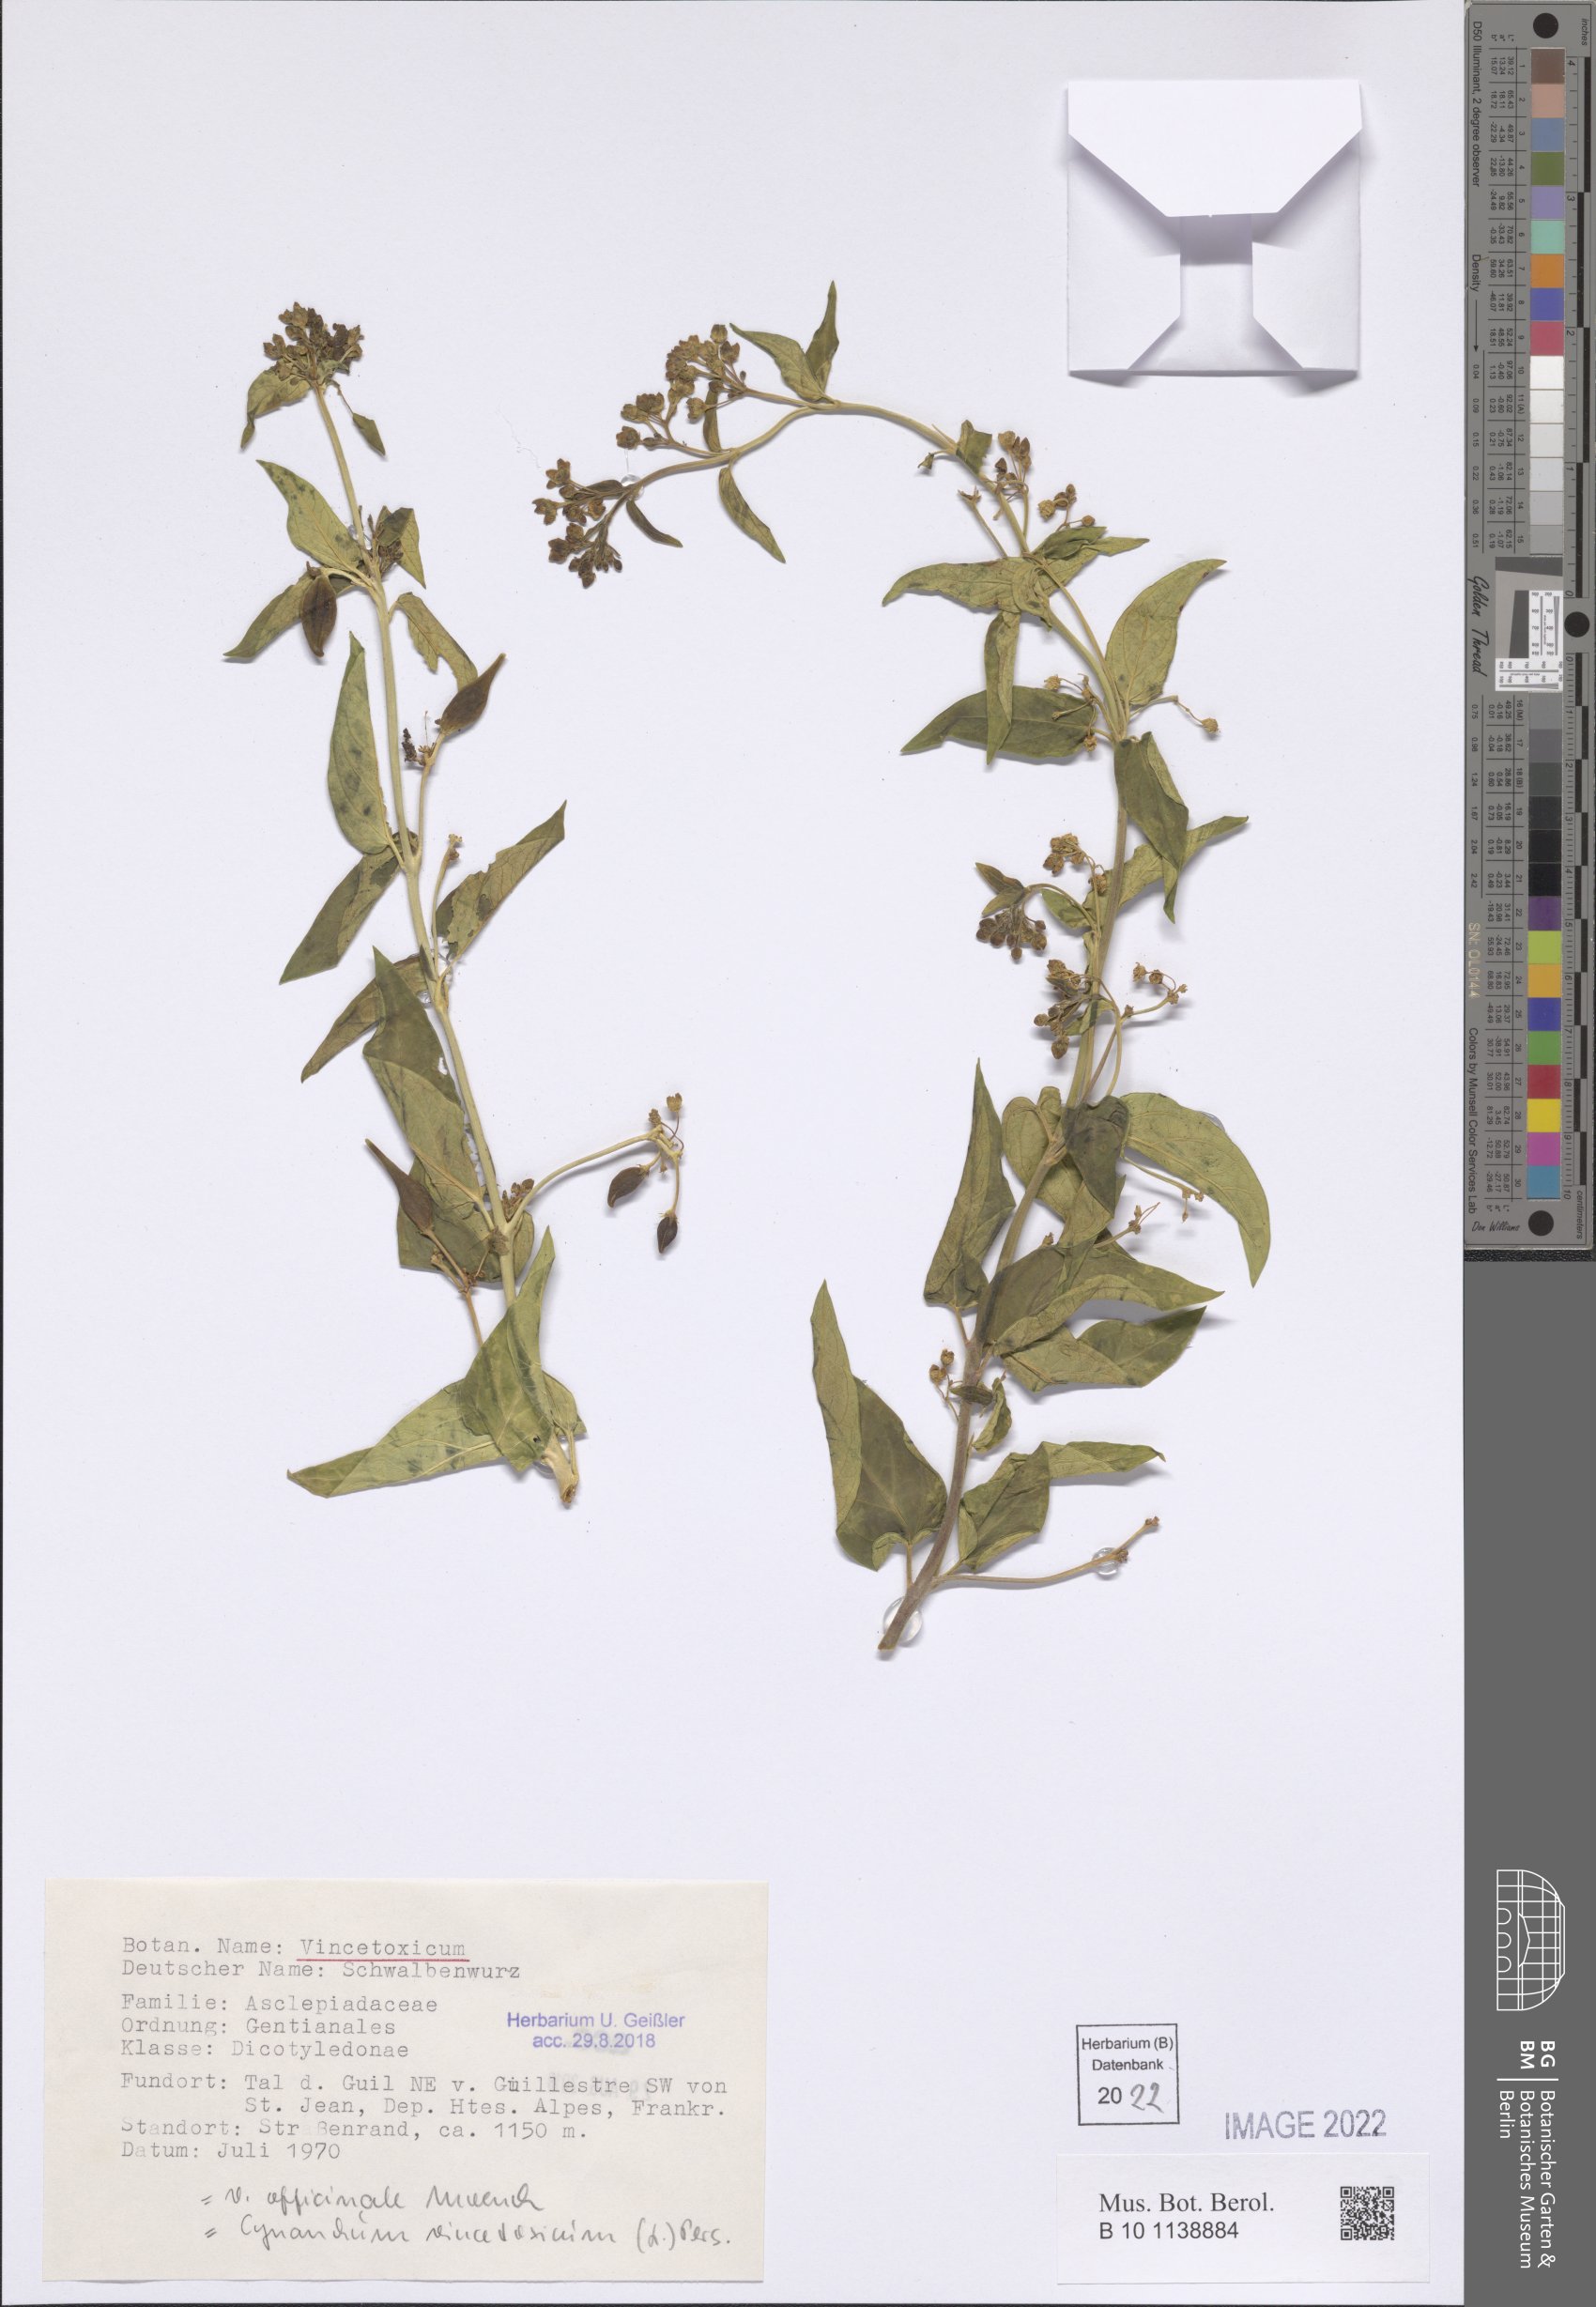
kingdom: Plantae
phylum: Tracheophyta
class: Magnoliopsida
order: Gentianales
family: Apocynaceae
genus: Vincetoxicum
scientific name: Vincetoxicum hirundinaria
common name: White swallowwort
